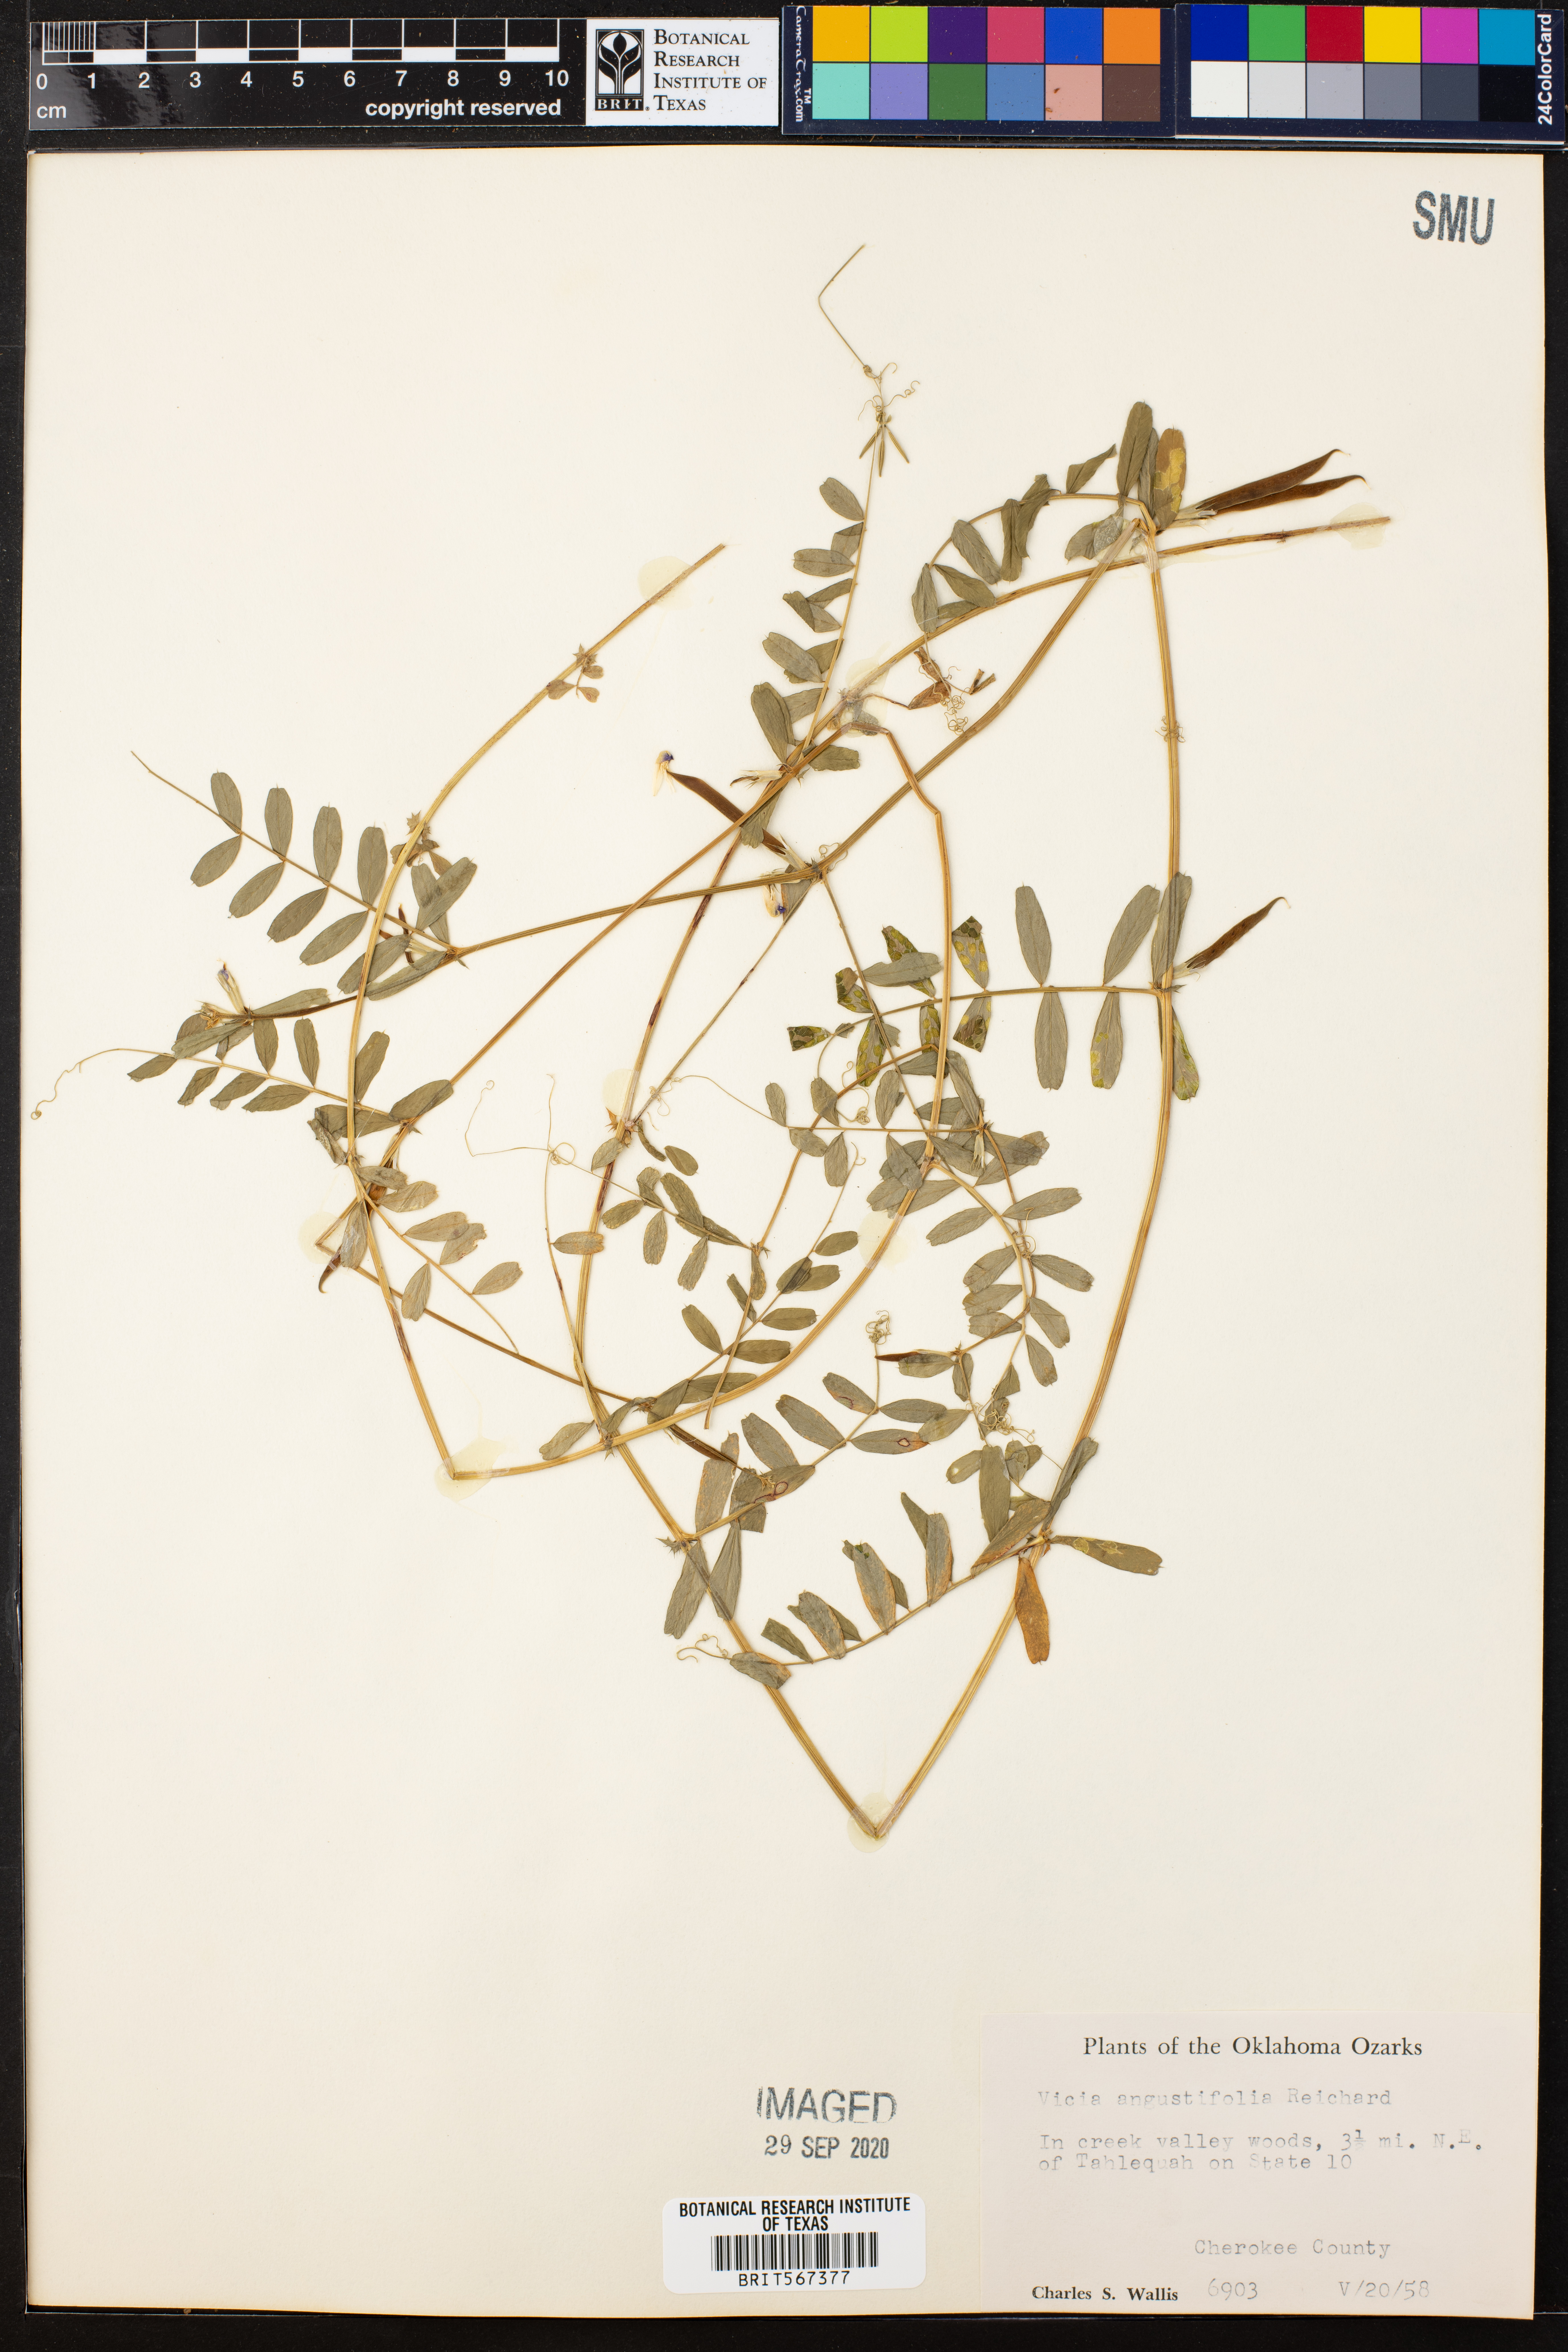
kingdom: Plantae
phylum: Tracheophyta
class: Magnoliopsida
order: Fabales
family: Fabaceae
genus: Vicia
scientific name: Vicia sativa
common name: Garden vetch
